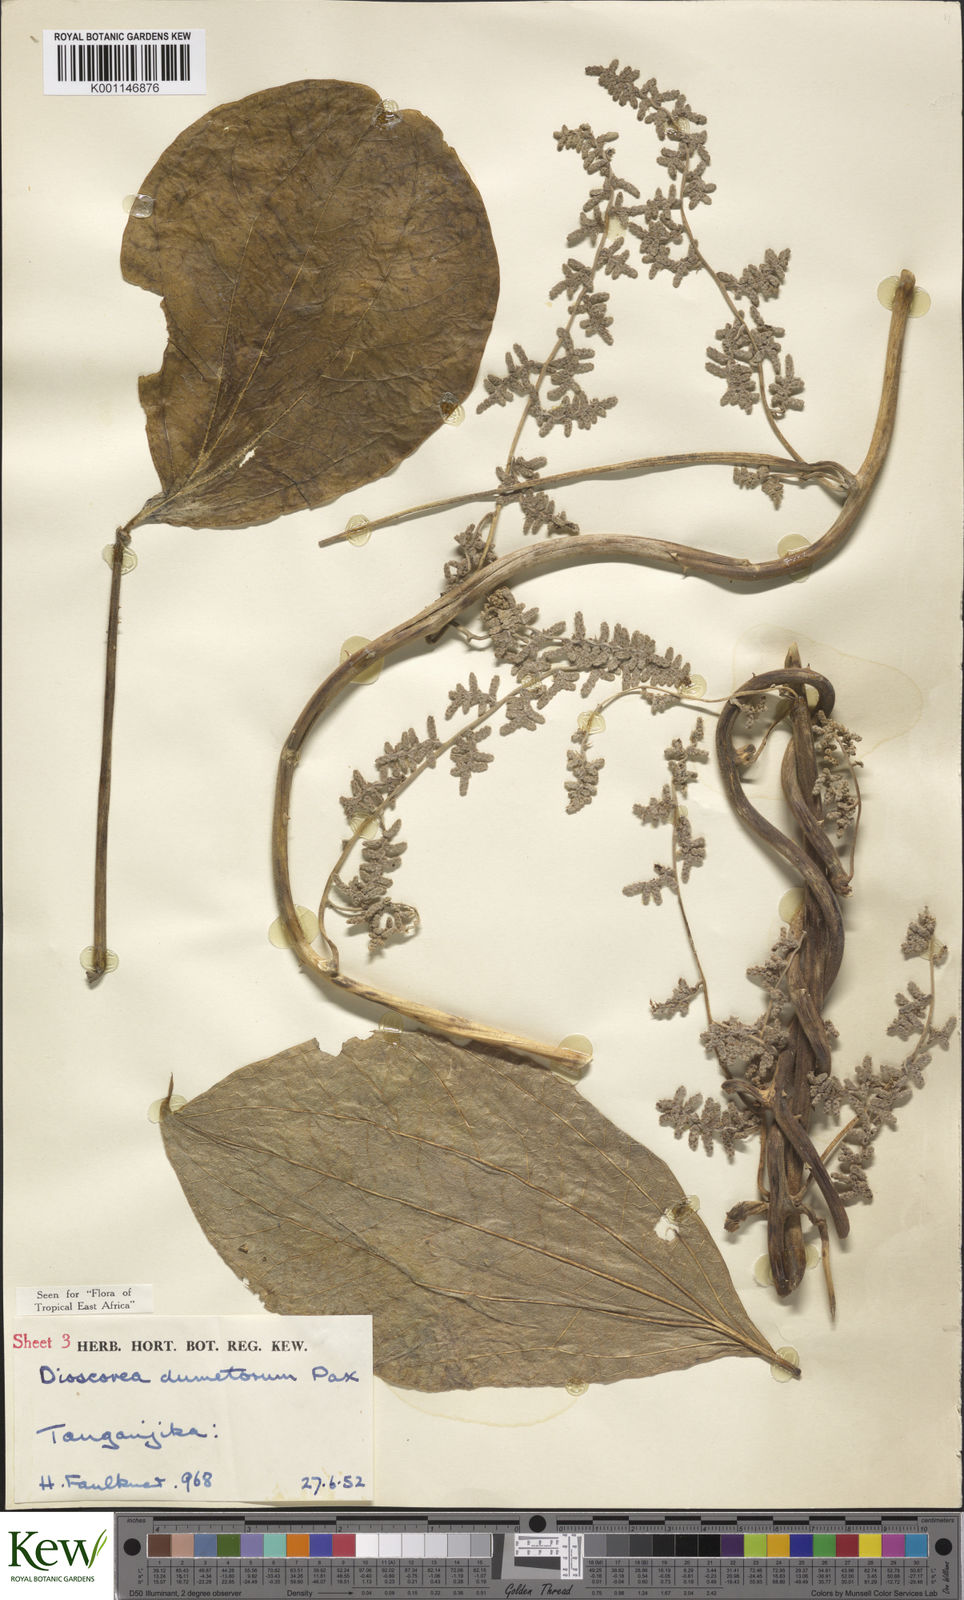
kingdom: Plantae
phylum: Tracheophyta
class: Liliopsida
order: Dioscoreales
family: Dioscoreaceae
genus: Dioscorea
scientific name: Dioscorea dumetorum
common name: African bitter yam
